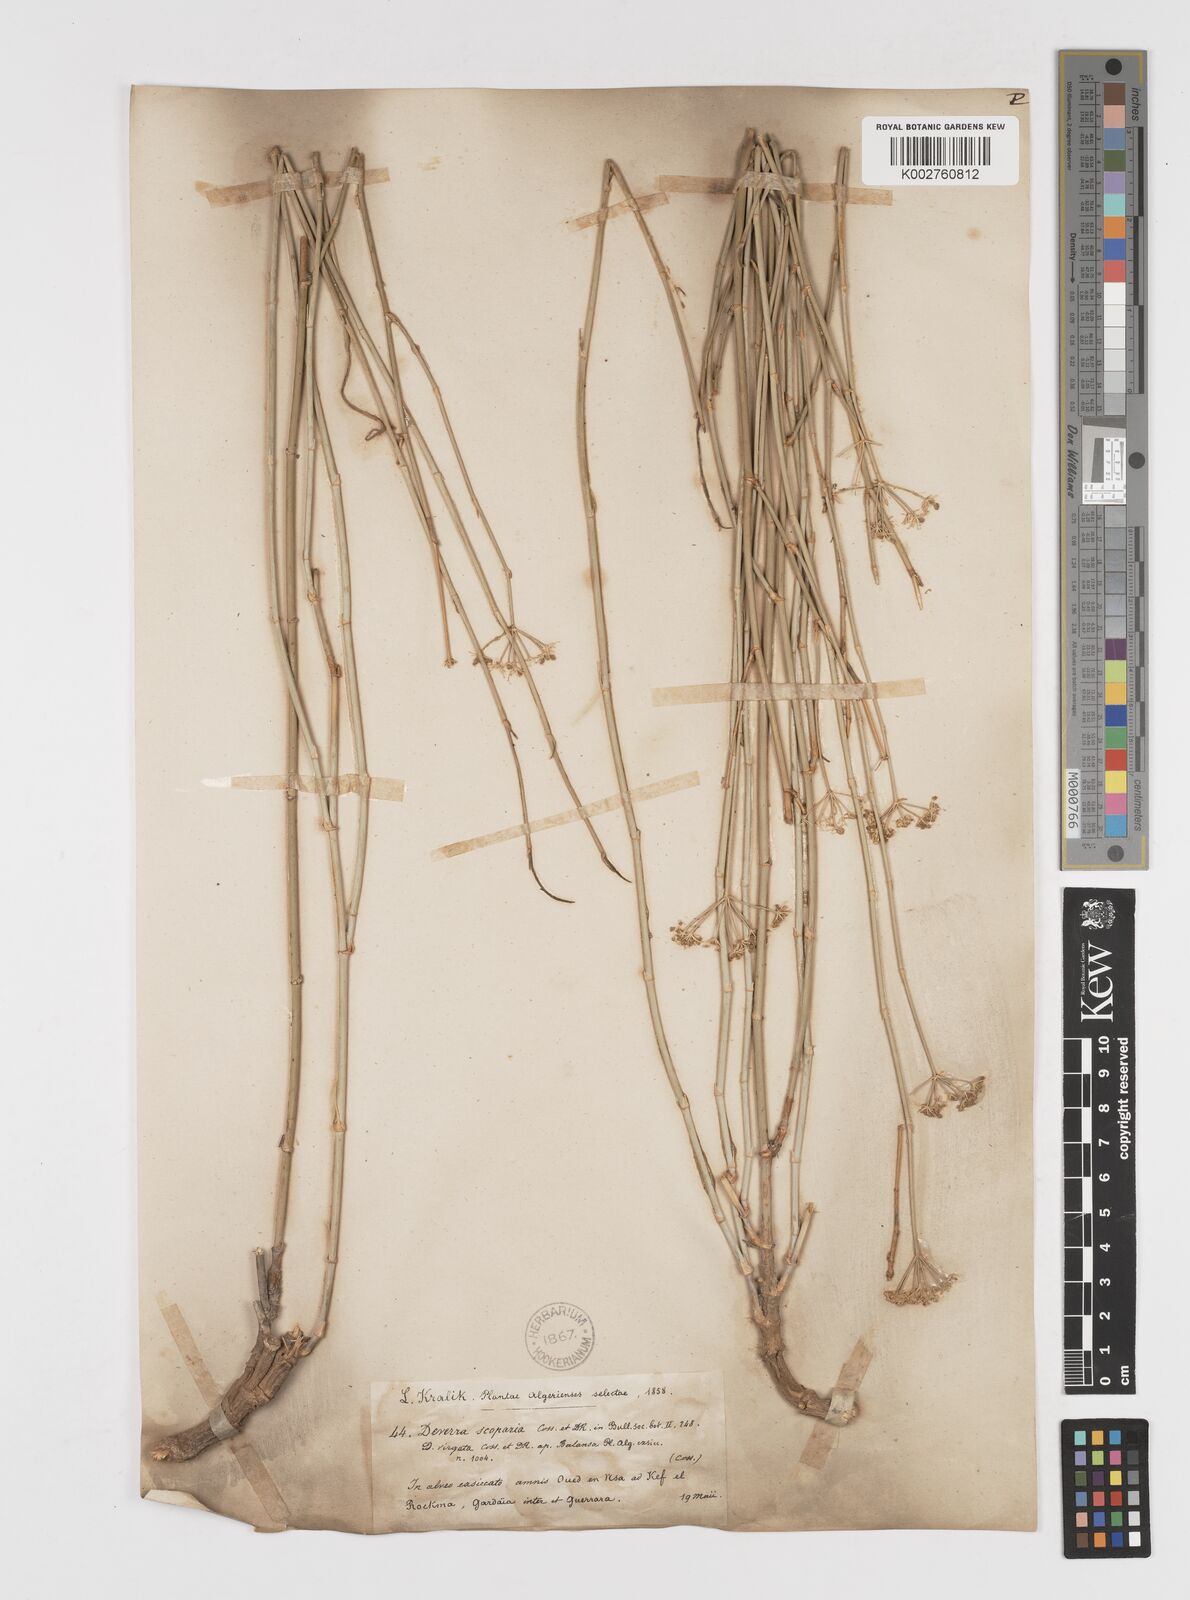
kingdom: Plantae
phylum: Tracheophyta
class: Magnoliopsida
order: Apiales
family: Apiaceae
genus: Deverra
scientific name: Deverra scoparia
